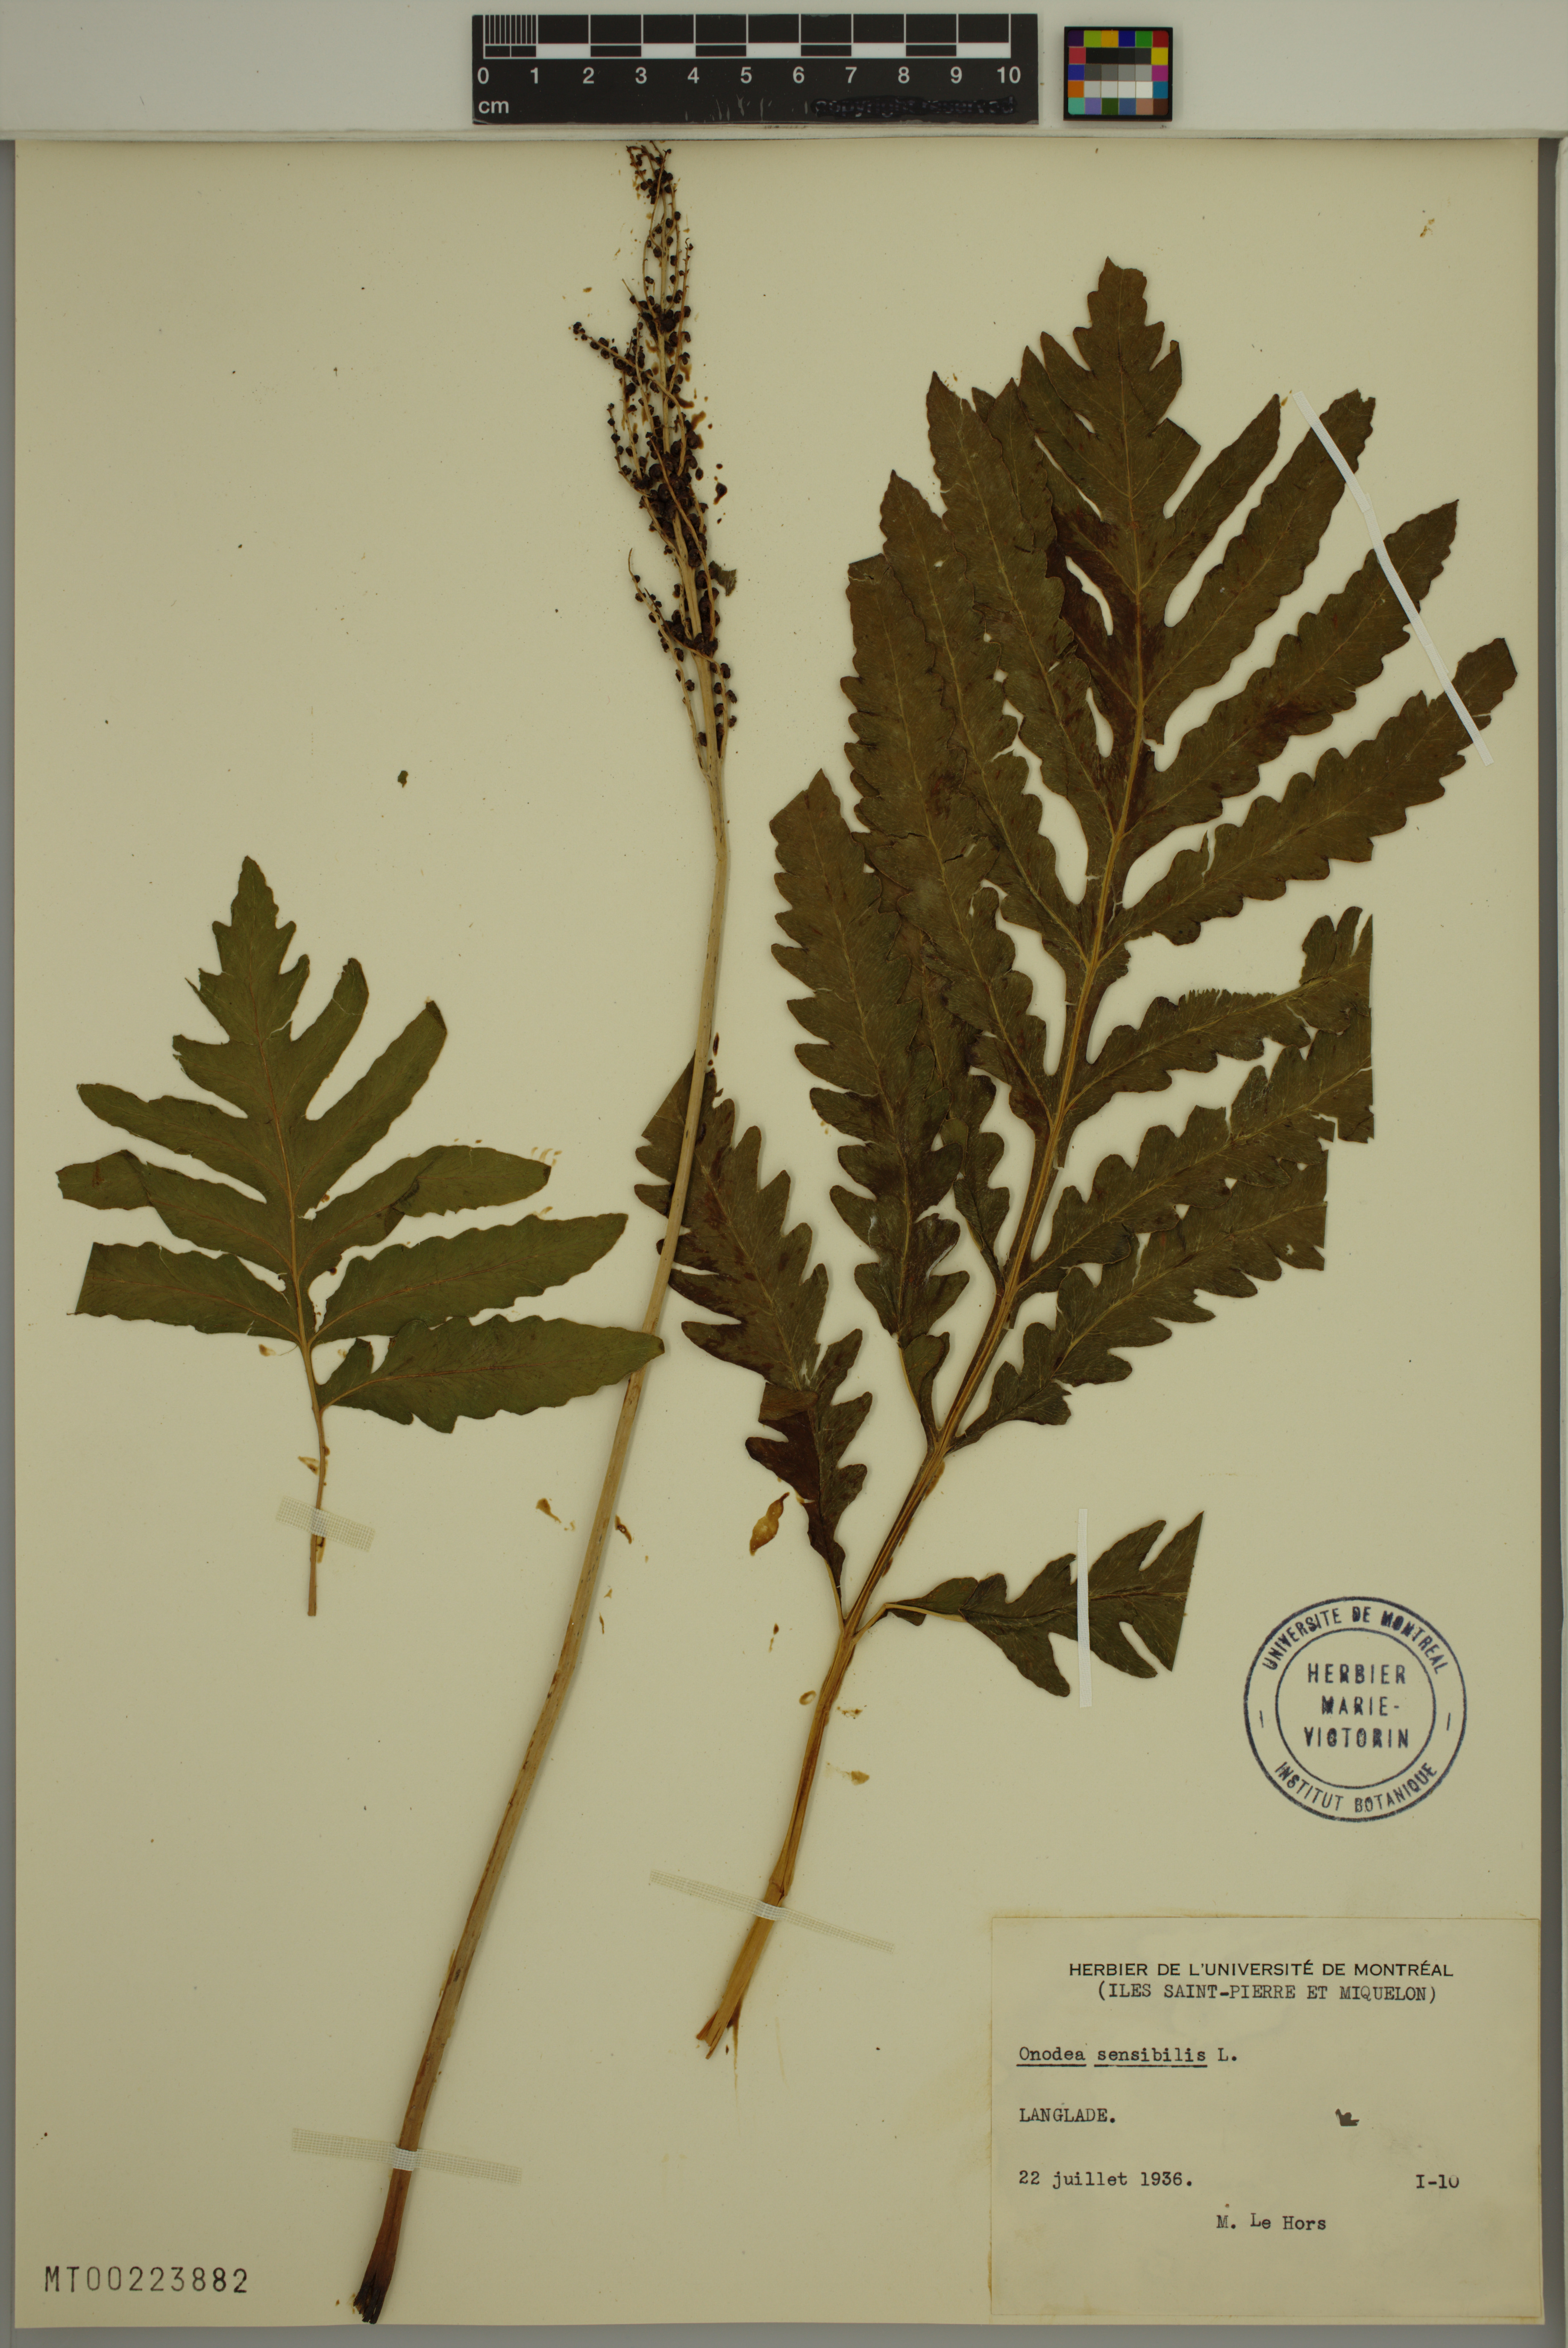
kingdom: Plantae
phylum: Tracheophyta
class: Polypodiopsida
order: Polypodiales
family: Onocleaceae
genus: Onoclea
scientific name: Onoclea sensibilis
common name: Sensitive fern
